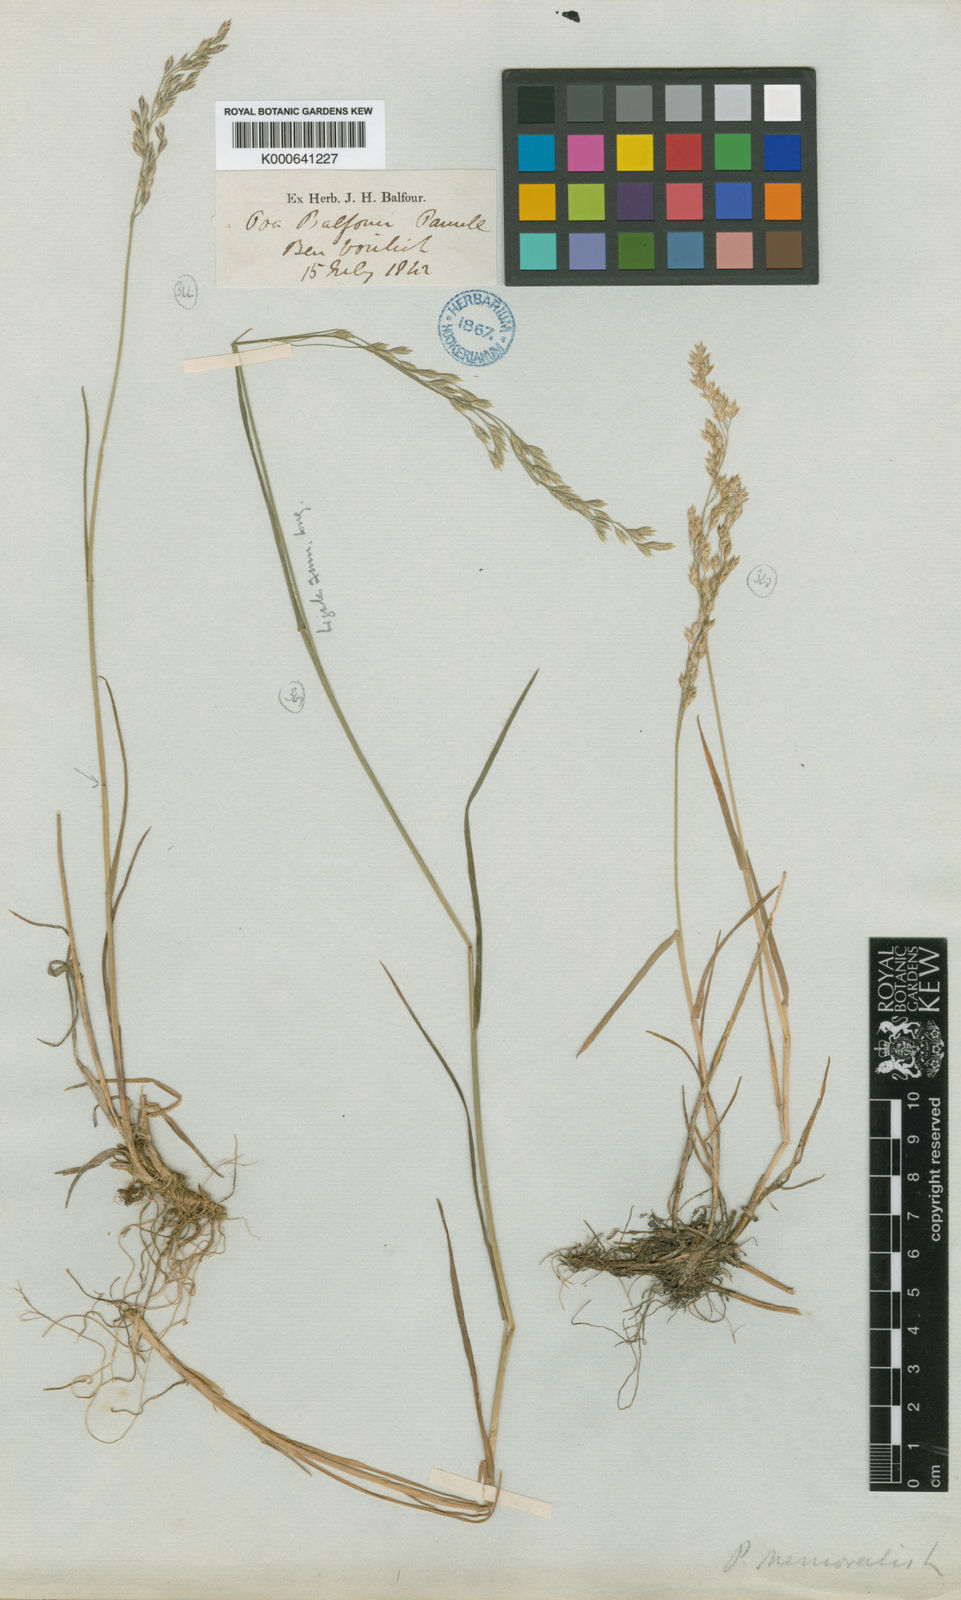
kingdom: Plantae
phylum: Tracheophyta
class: Liliopsida
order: Poales
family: Poaceae
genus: Poa
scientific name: Poa glauca
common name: Glaucous bluegrass
